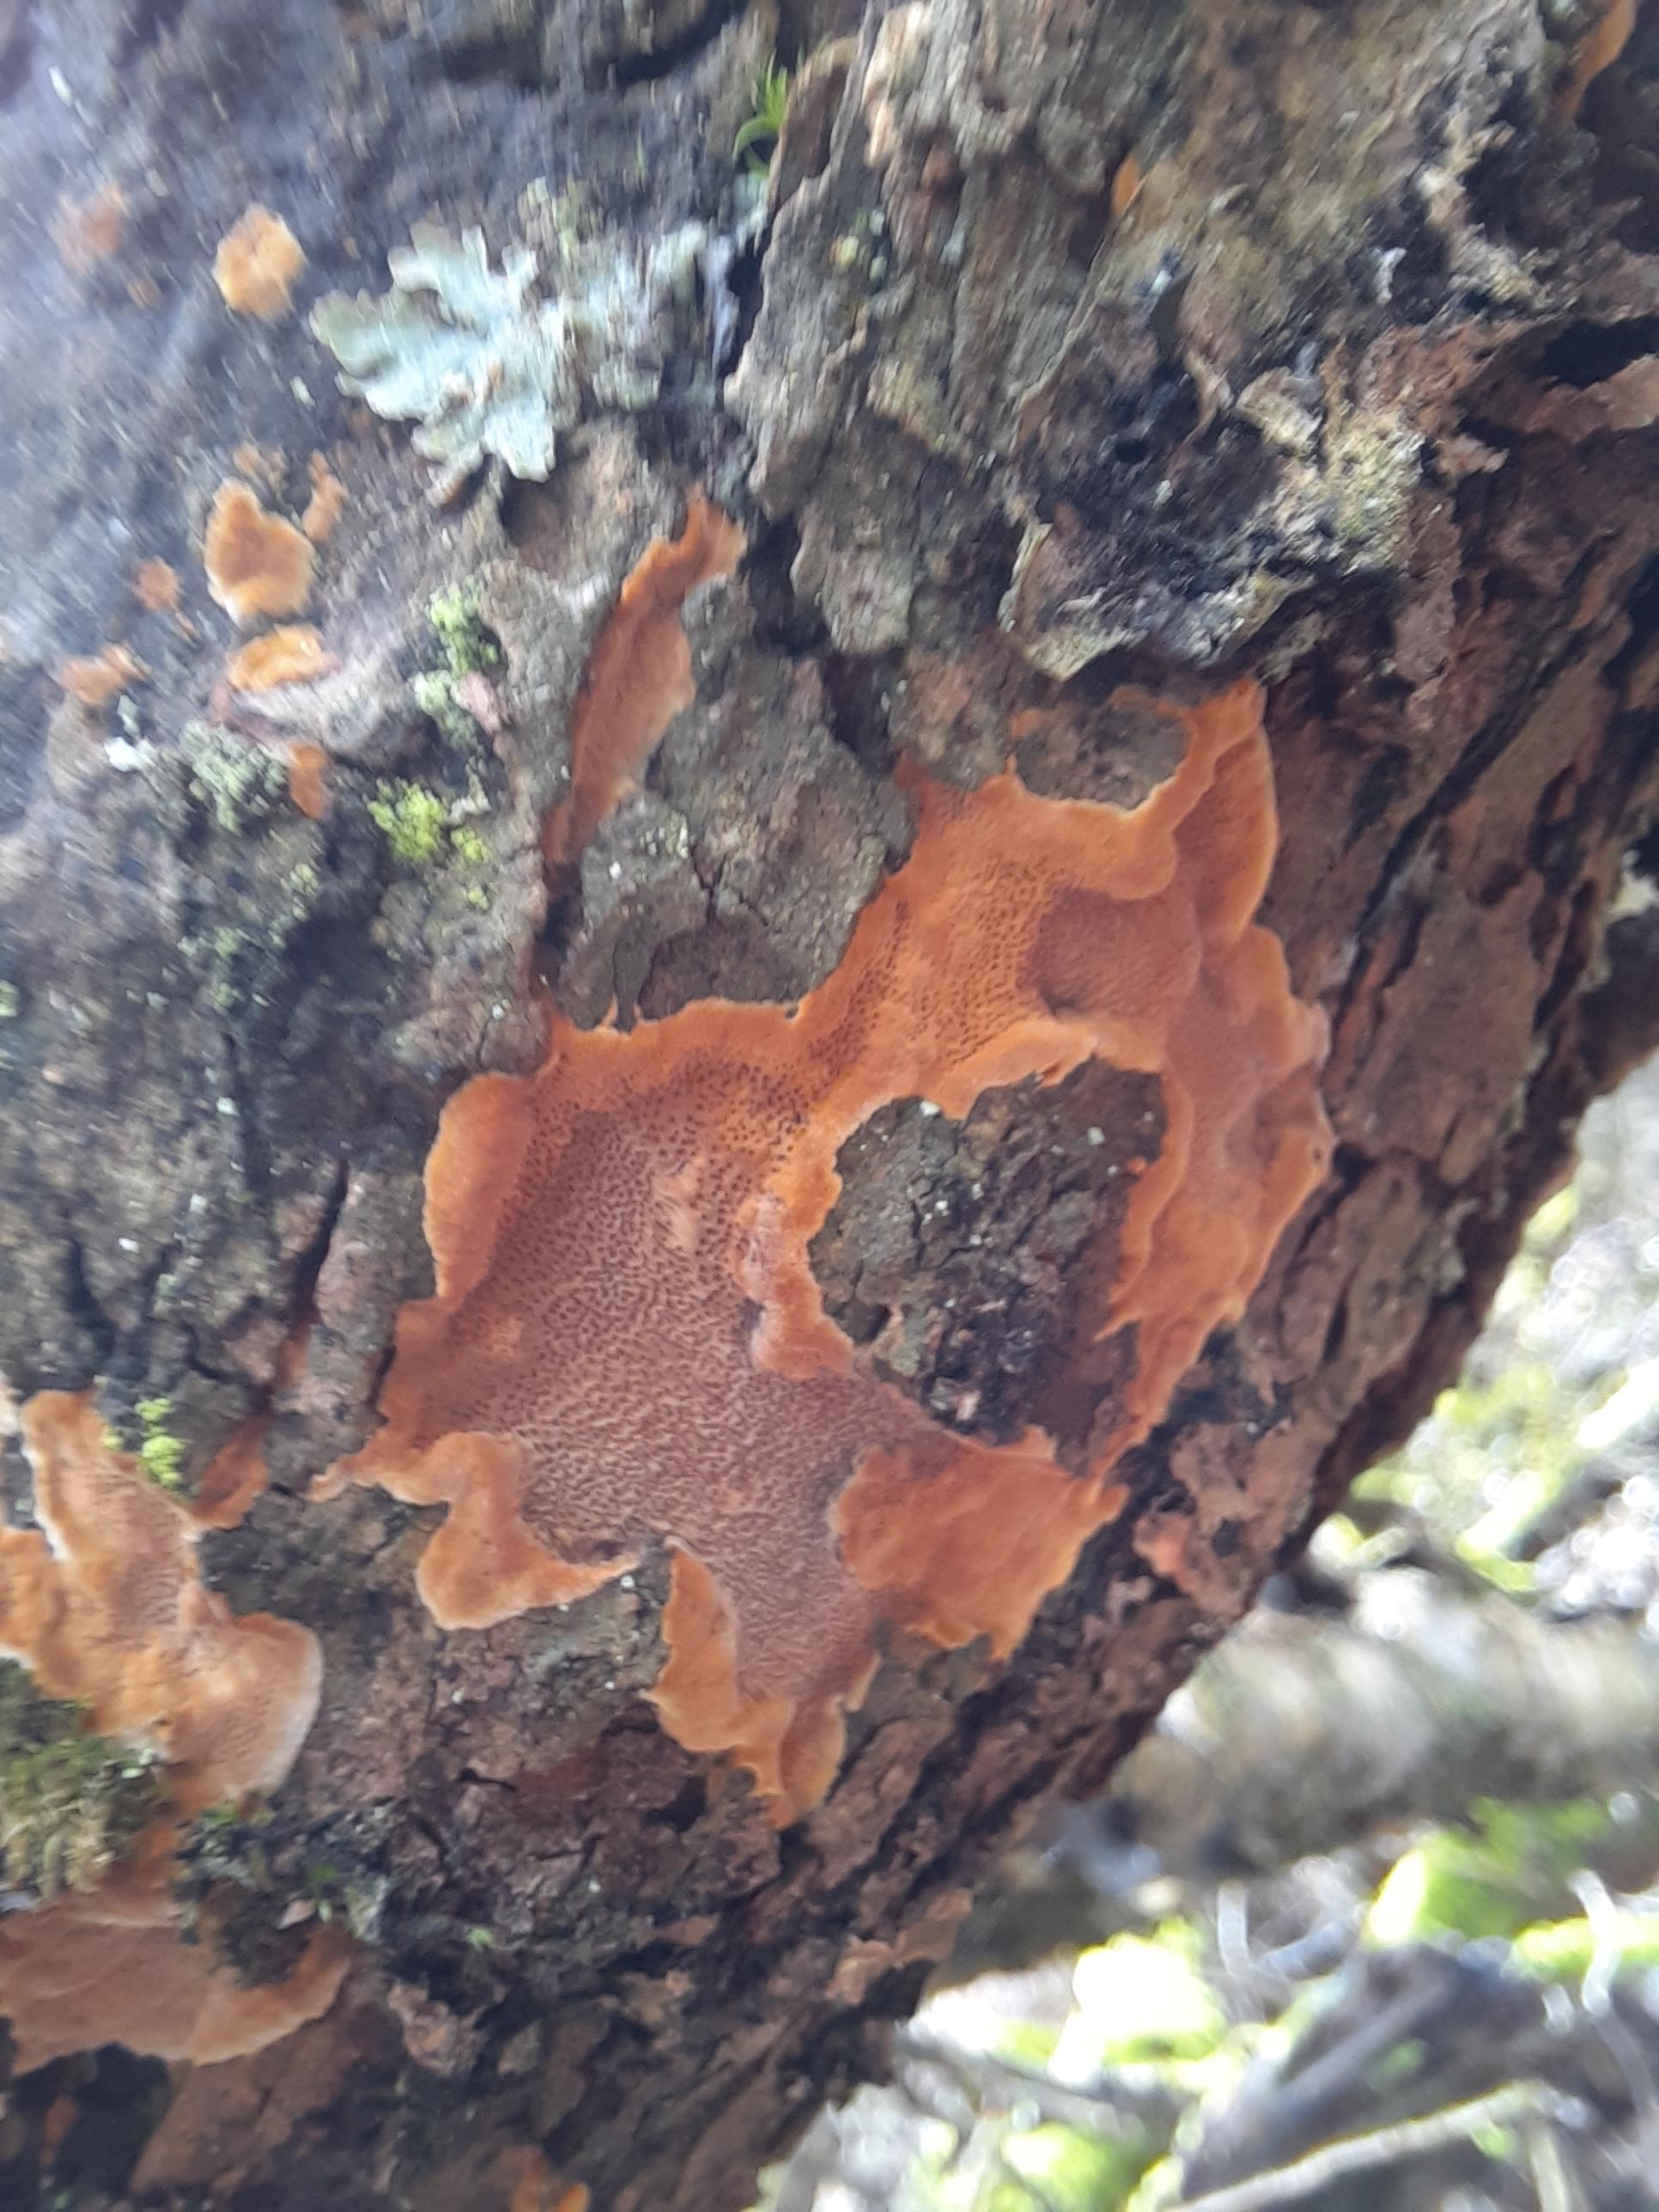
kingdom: Fungi
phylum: Basidiomycota
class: Agaricomycetes
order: Hymenochaetales
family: Hymenochaetaceae
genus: Fuscoporia
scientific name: Fuscoporia ferrea
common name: skorpe-ildporesvamp
